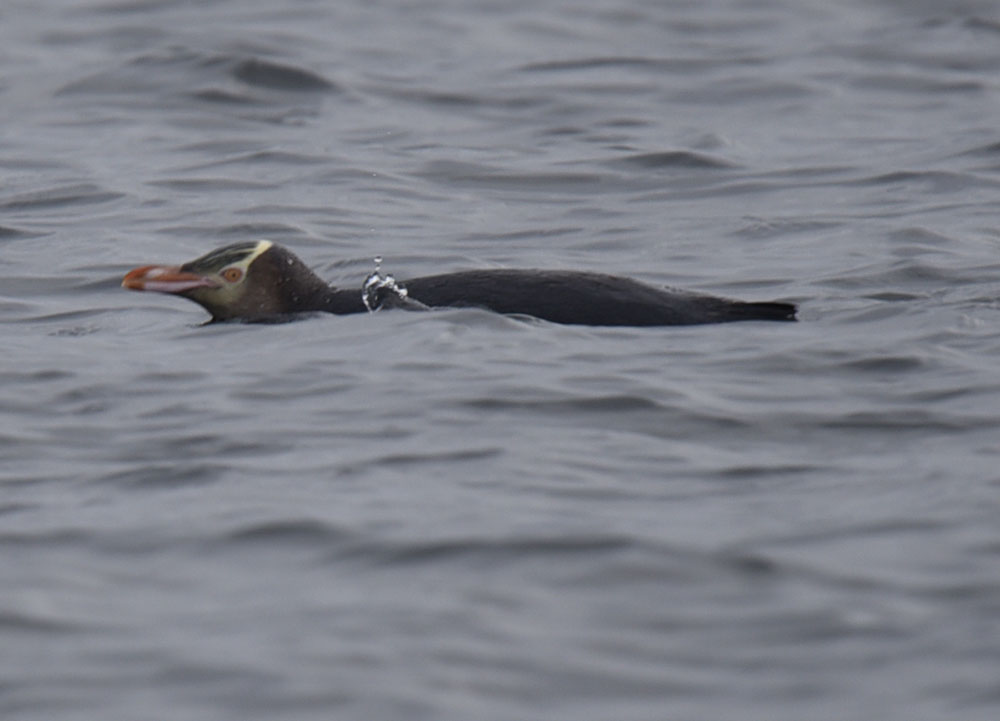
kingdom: Animalia
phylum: Chordata
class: Aves
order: Sphenisciformes
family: Spheniscidae
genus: Megadyptes
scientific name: Megadyptes antipodes
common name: Yellow-eyed penguin
